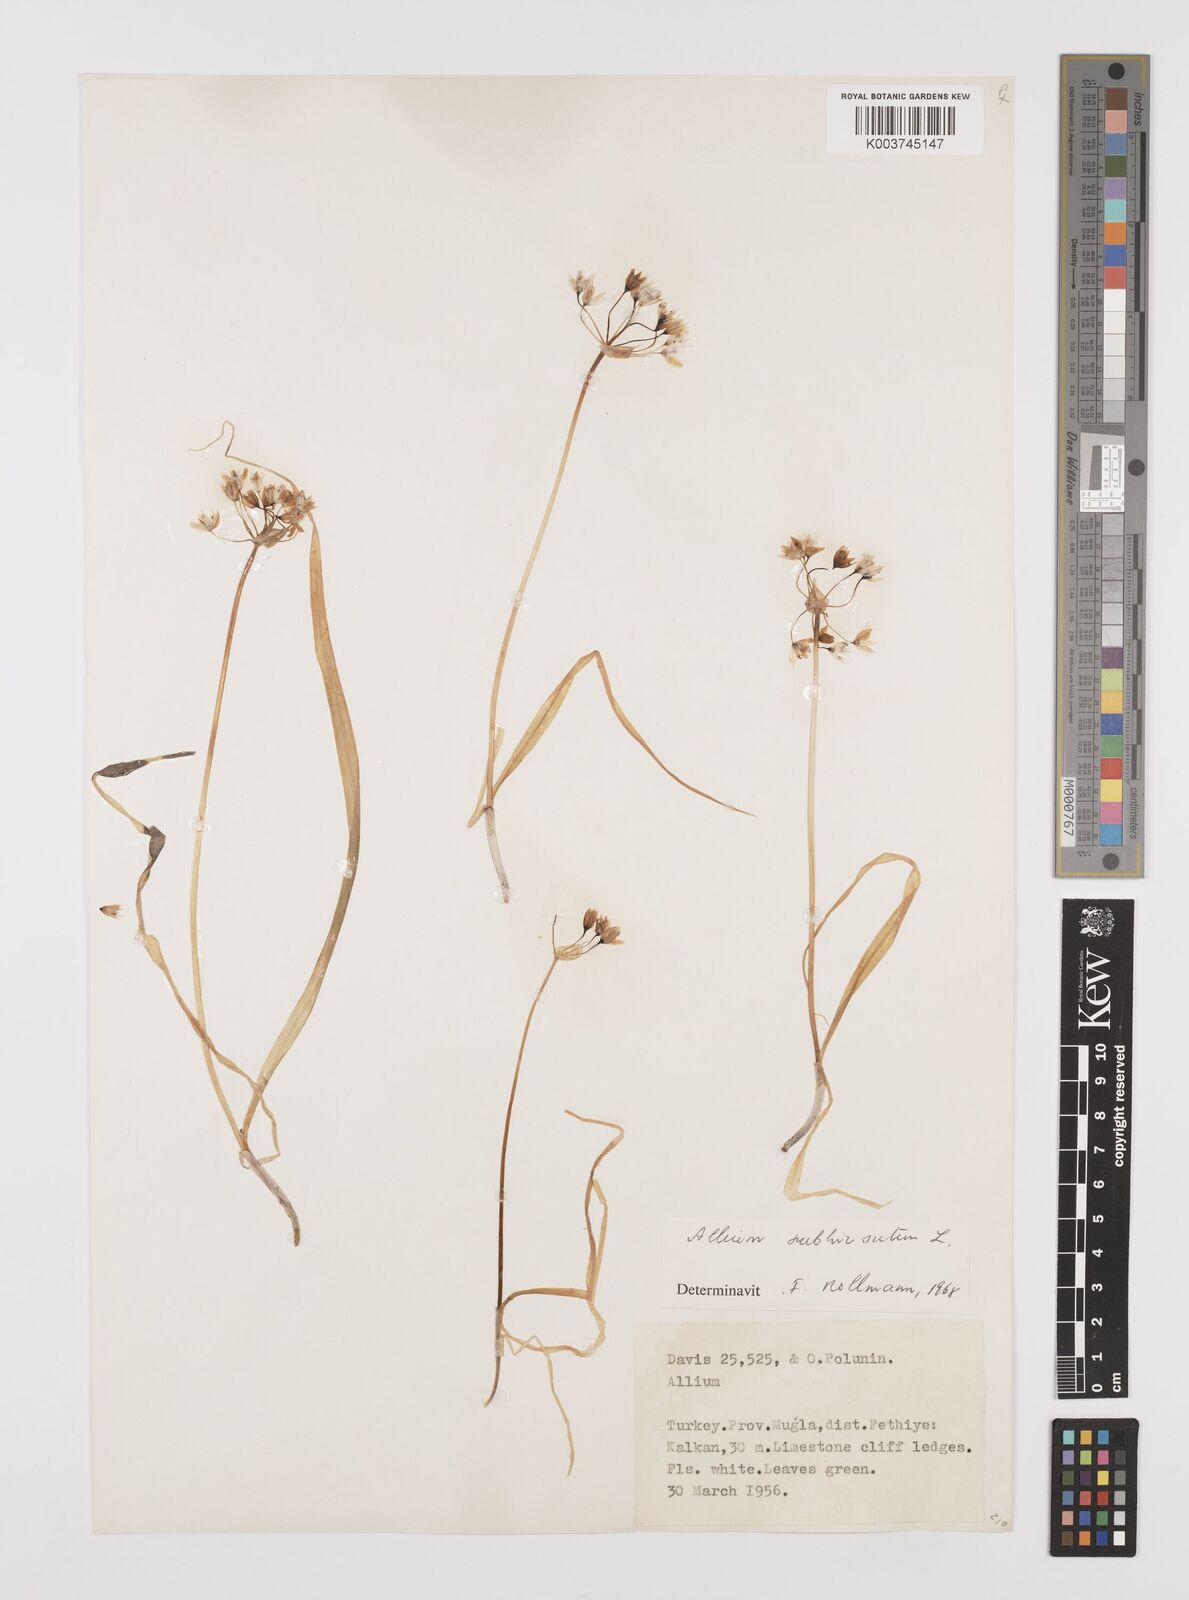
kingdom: Plantae
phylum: Tracheophyta
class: Liliopsida
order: Asparagales
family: Amaryllidaceae
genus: Allium
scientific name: Allium subhirsutum
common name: Hairy garlic
